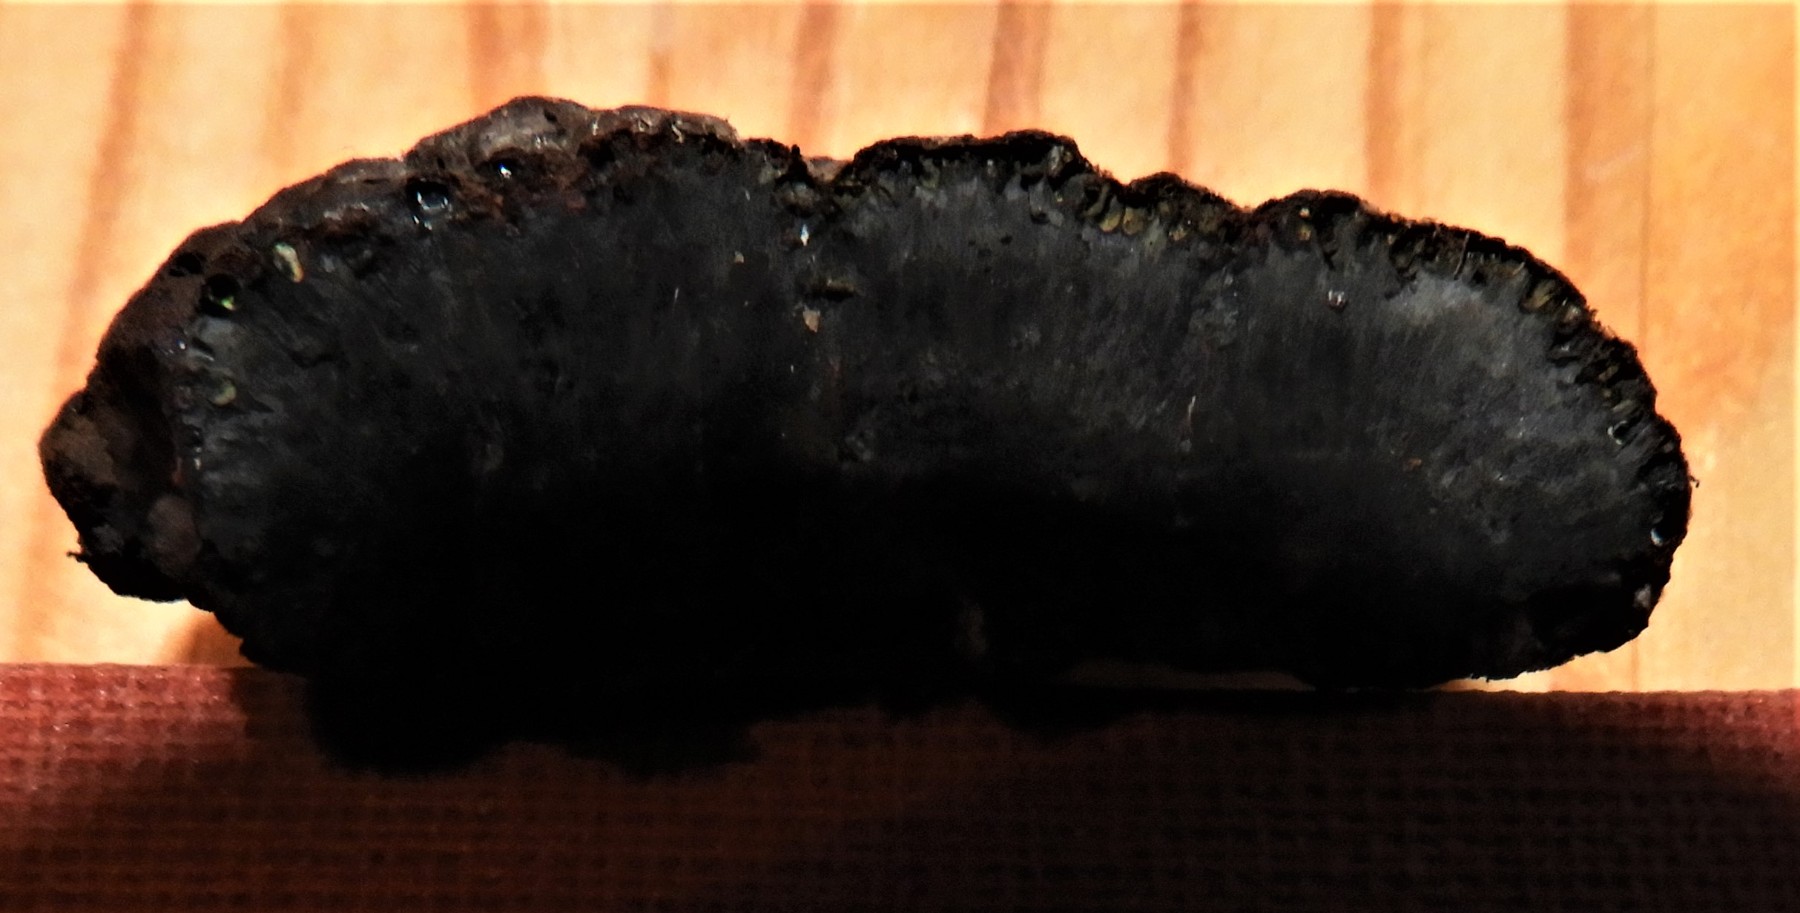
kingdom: Fungi
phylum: Ascomycota
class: Sordariomycetes
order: Xylariales
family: Hypoxylaceae
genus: Hypoxylon
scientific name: Hypoxylon fragiforme
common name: kuljordbær
